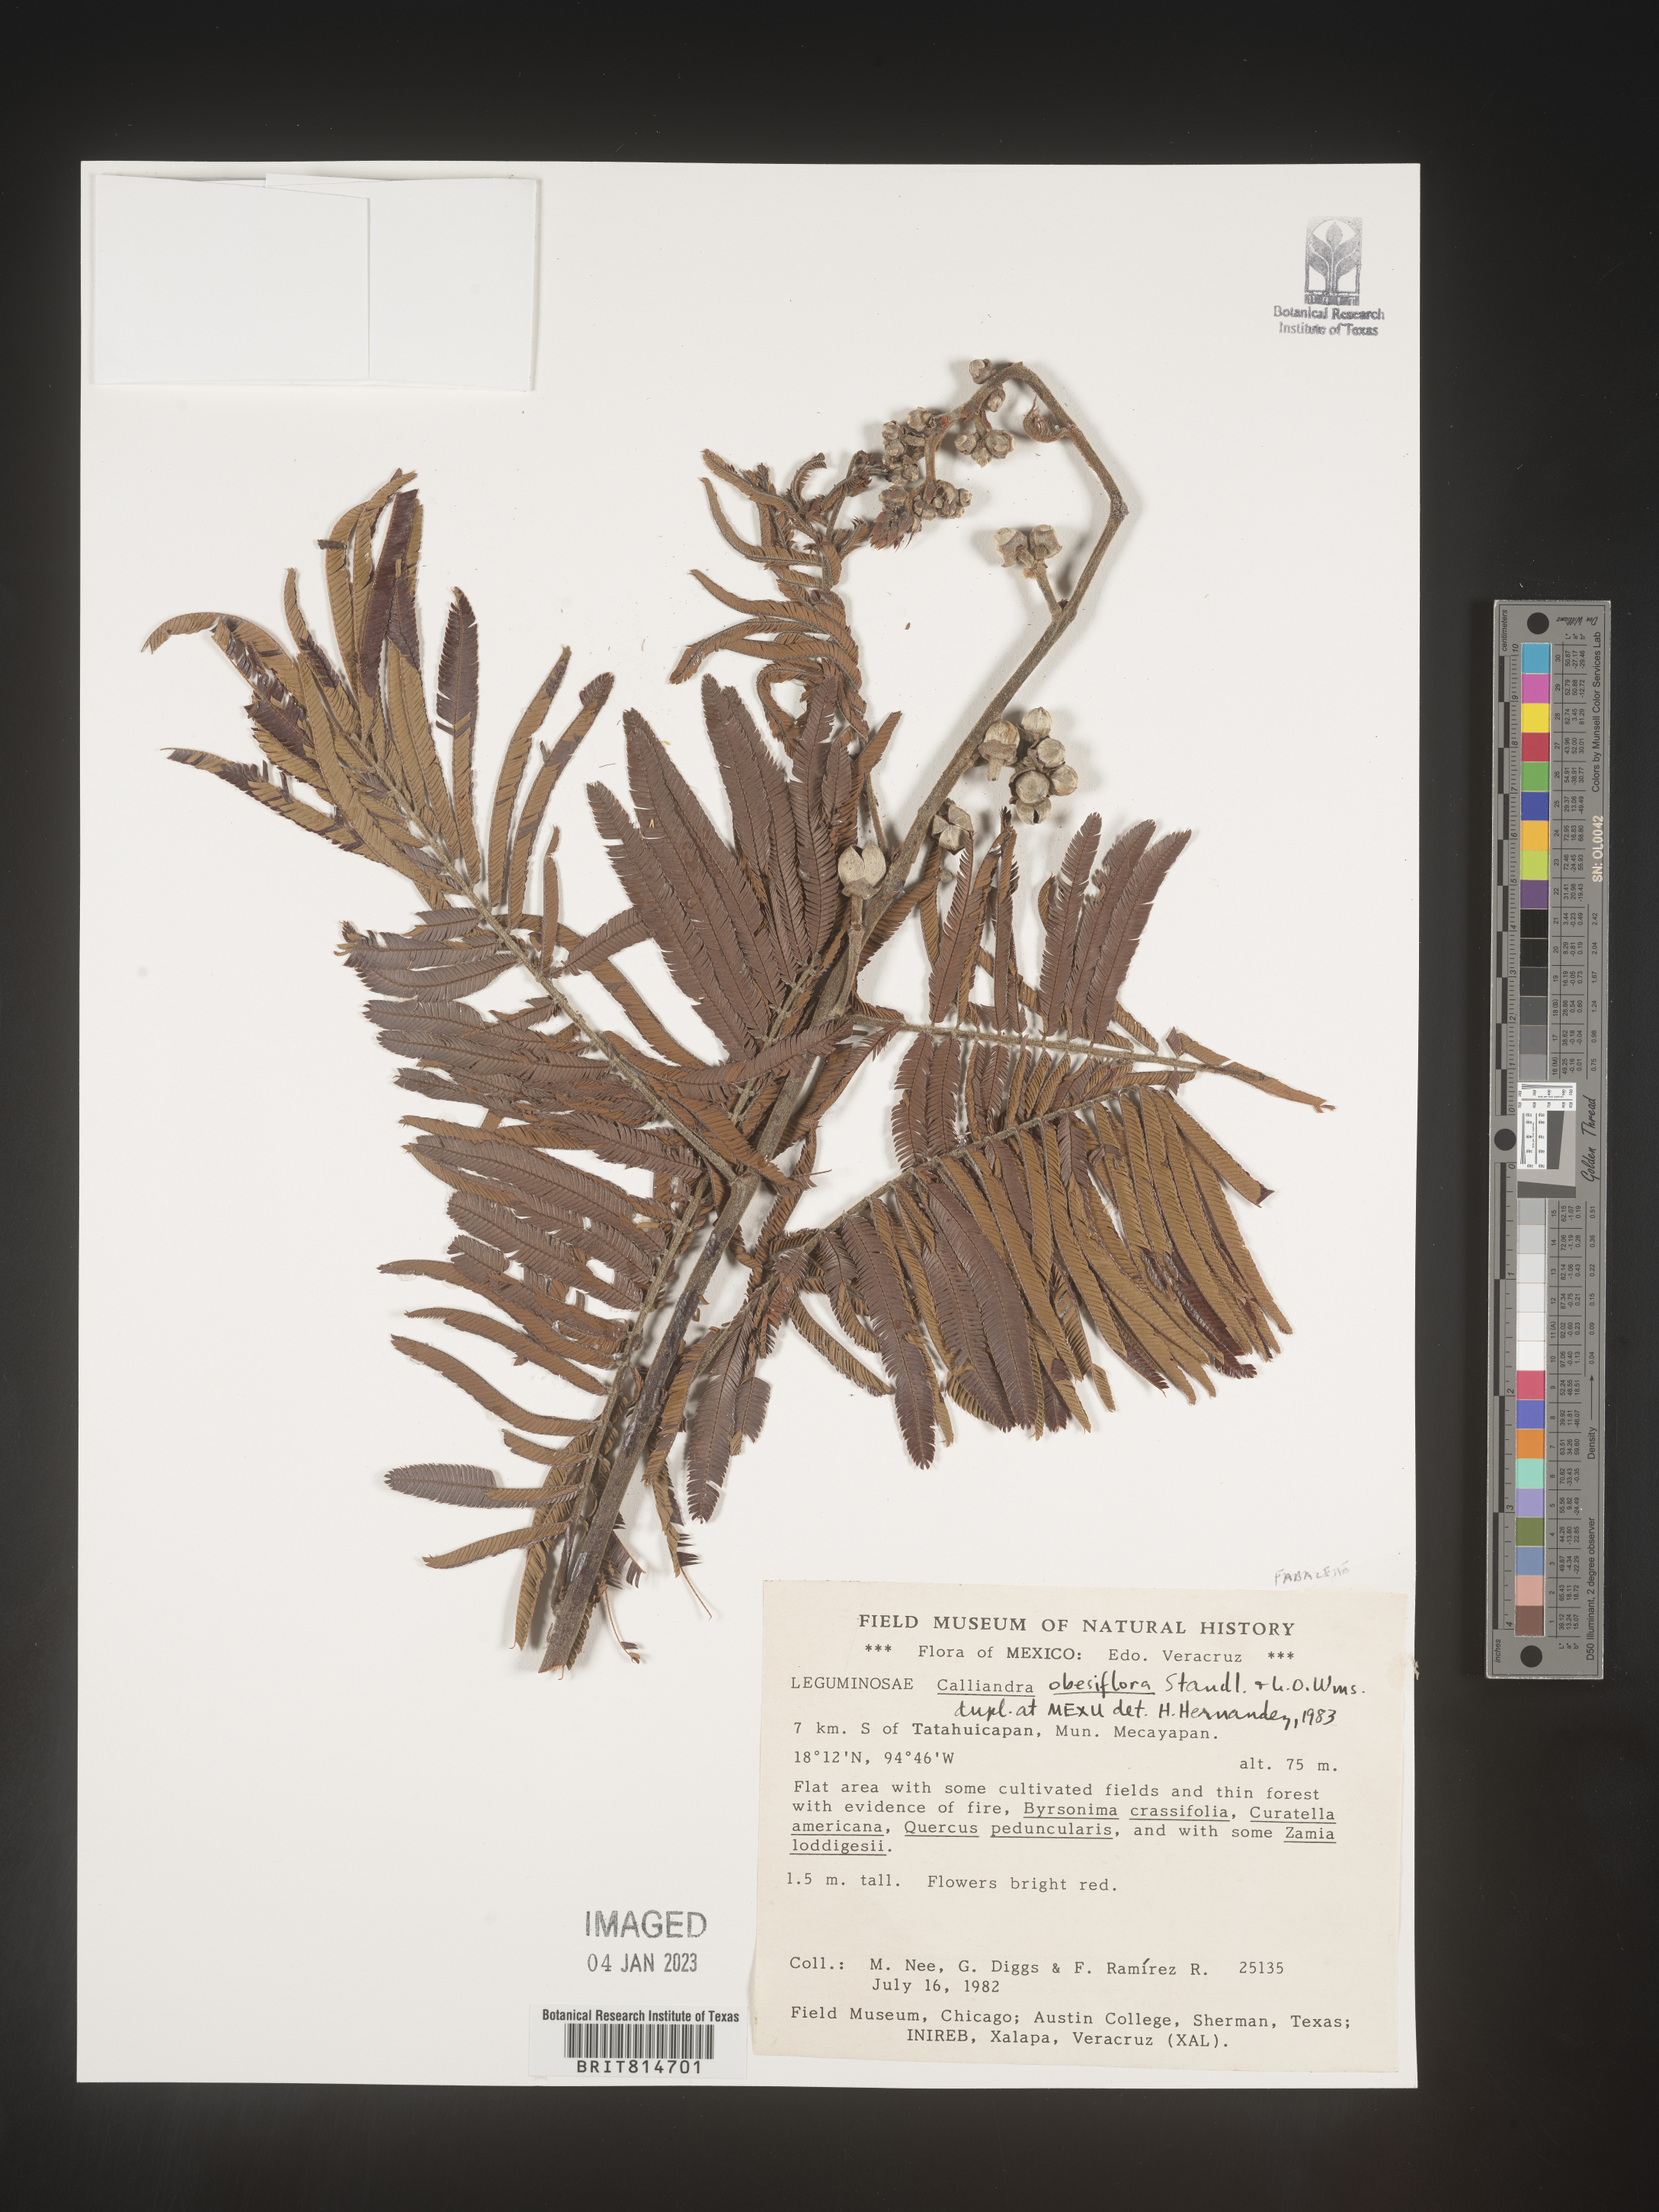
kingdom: Plantae
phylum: Tracheophyta
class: Magnoliopsida
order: Fabales
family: Fabaceae
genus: Calliandra
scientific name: Calliandra
